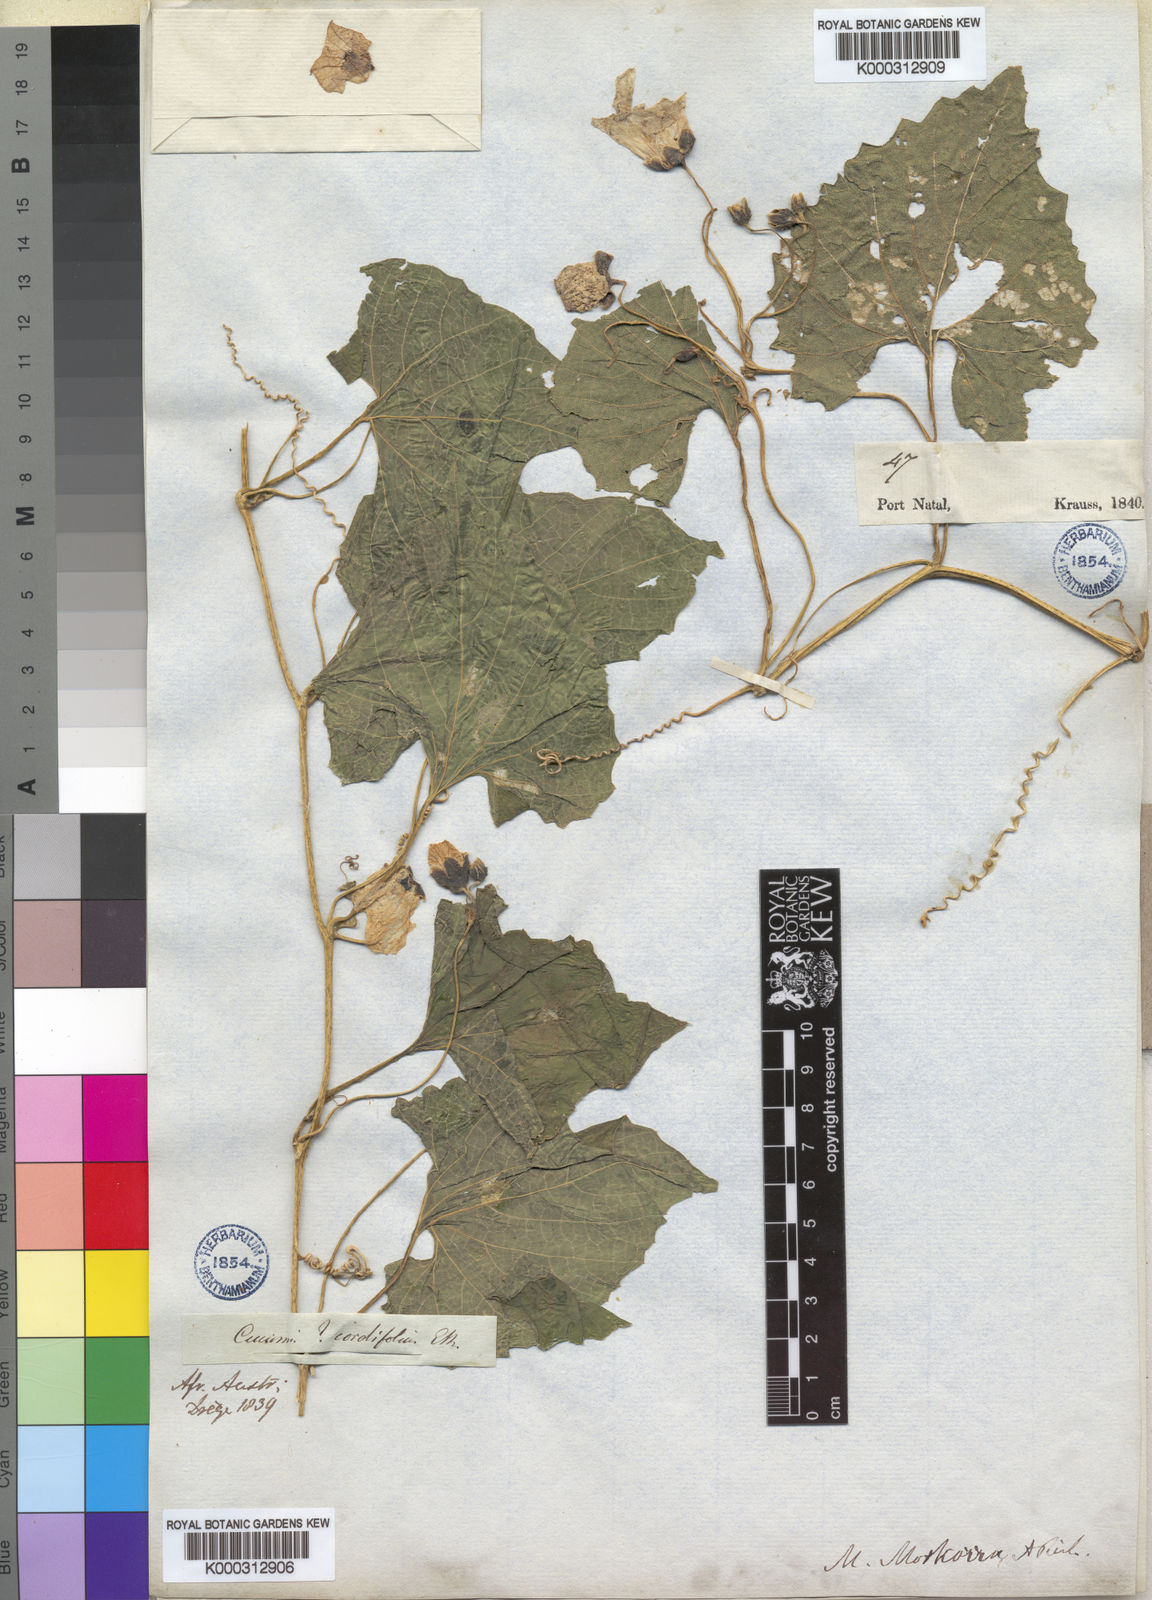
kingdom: Plantae
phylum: Tracheophyta
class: Magnoliopsida
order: Cucurbitales
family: Cucurbitaceae
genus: Momordica
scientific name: Momordica foetida
